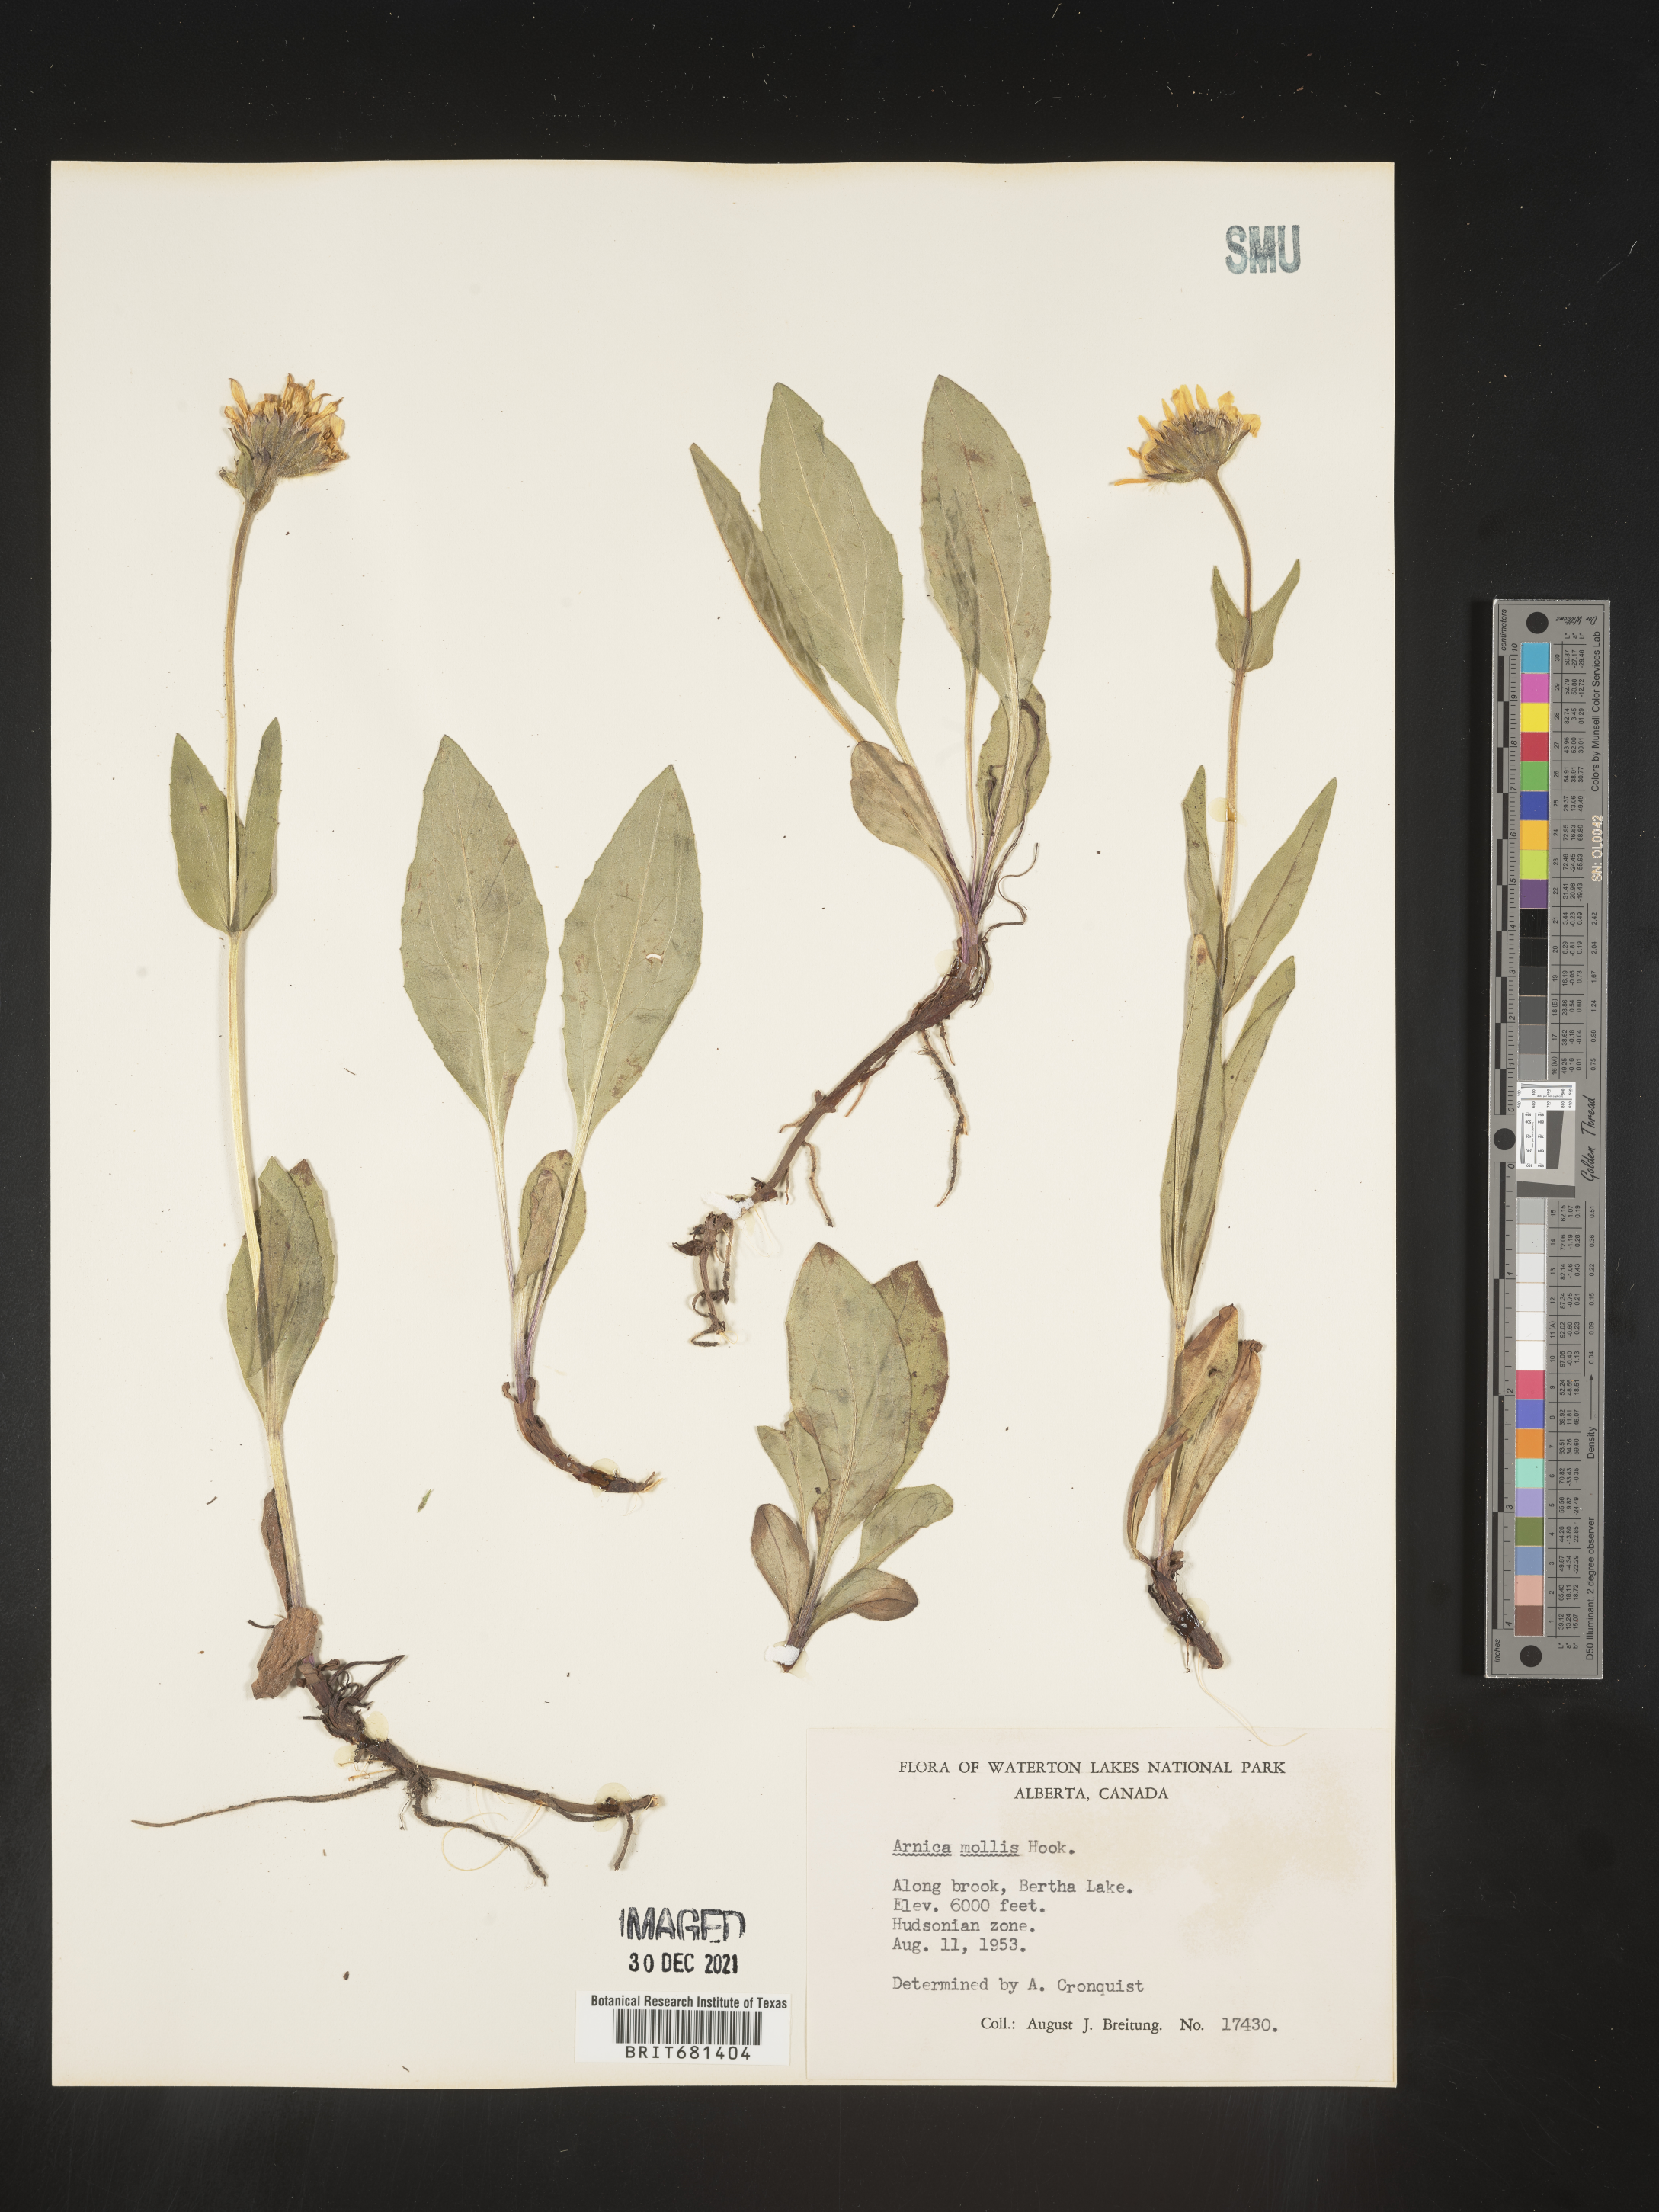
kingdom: Plantae
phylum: Tracheophyta
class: Magnoliopsida
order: Asterales
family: Asteraceae
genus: Arnica
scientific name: Arnica mollis
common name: Hairy arnica
